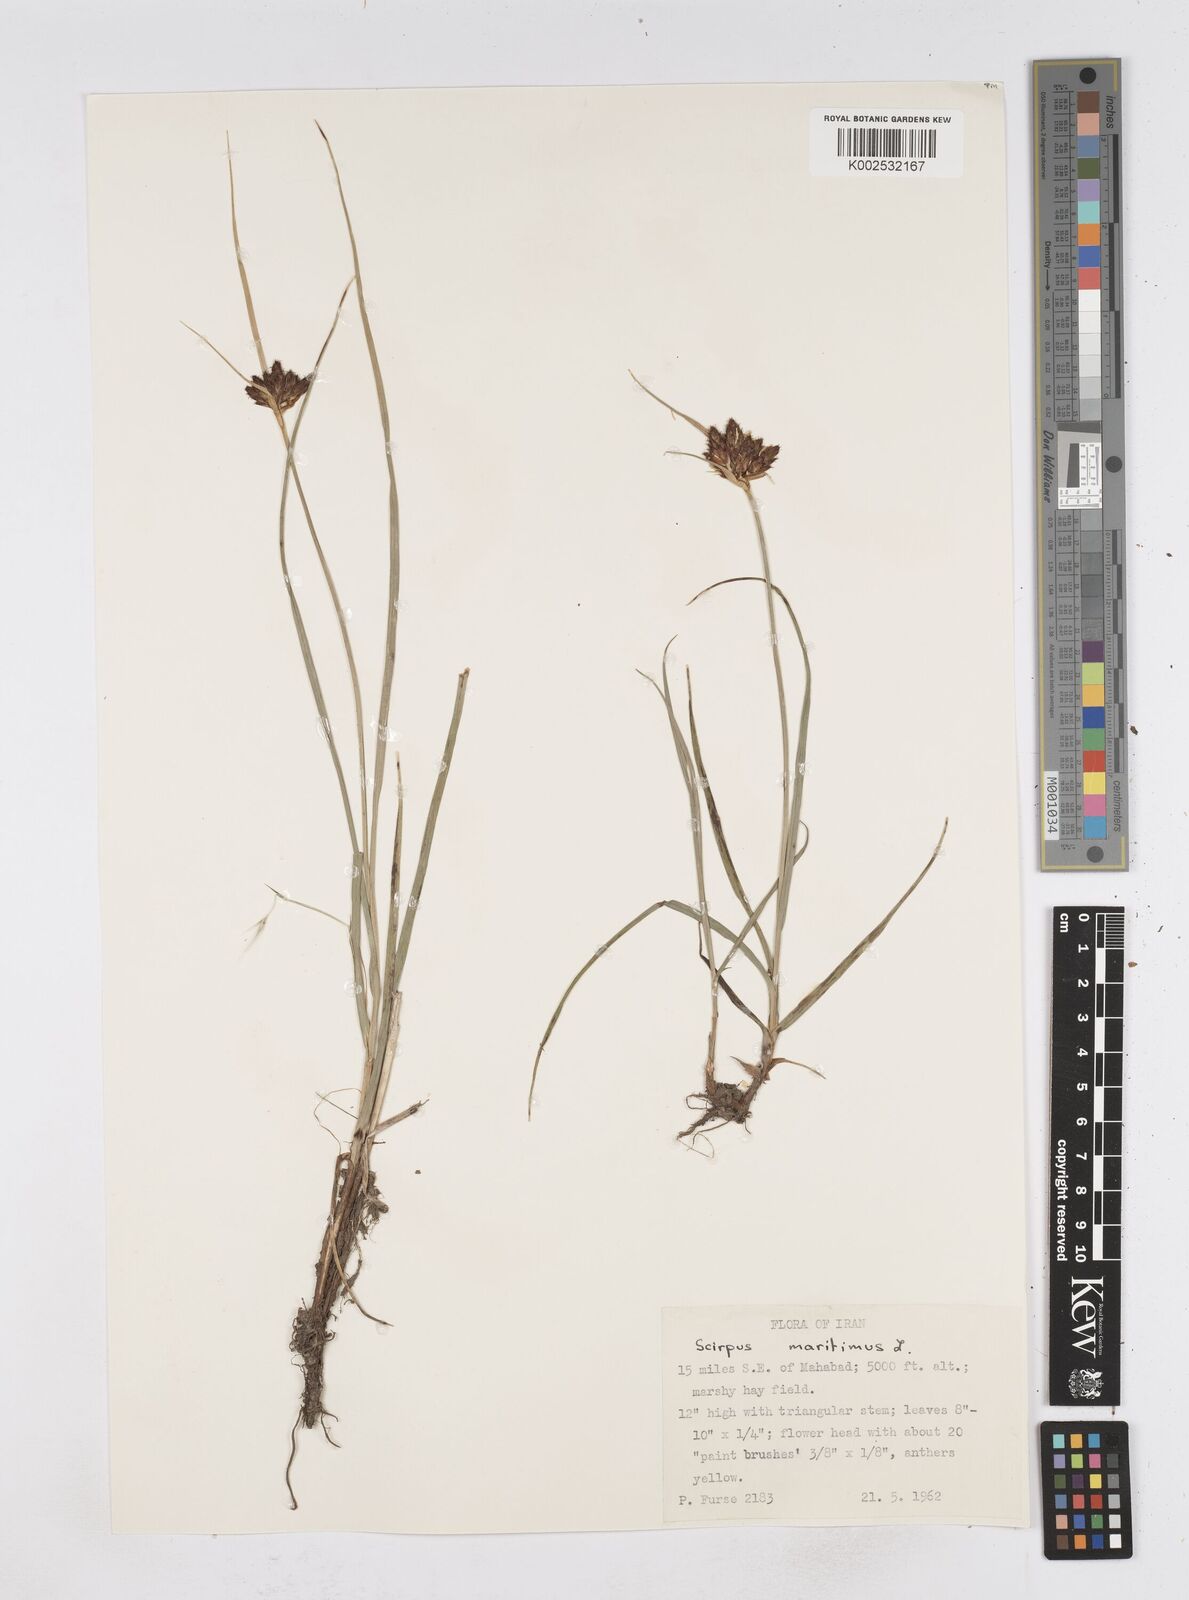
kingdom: Plantae
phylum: Tracheophyta
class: Liliopsida
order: Poales
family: Cyperaceae
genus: Bolboschoenus
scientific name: Bolboschoenus maritimus
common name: Sea club-rush
